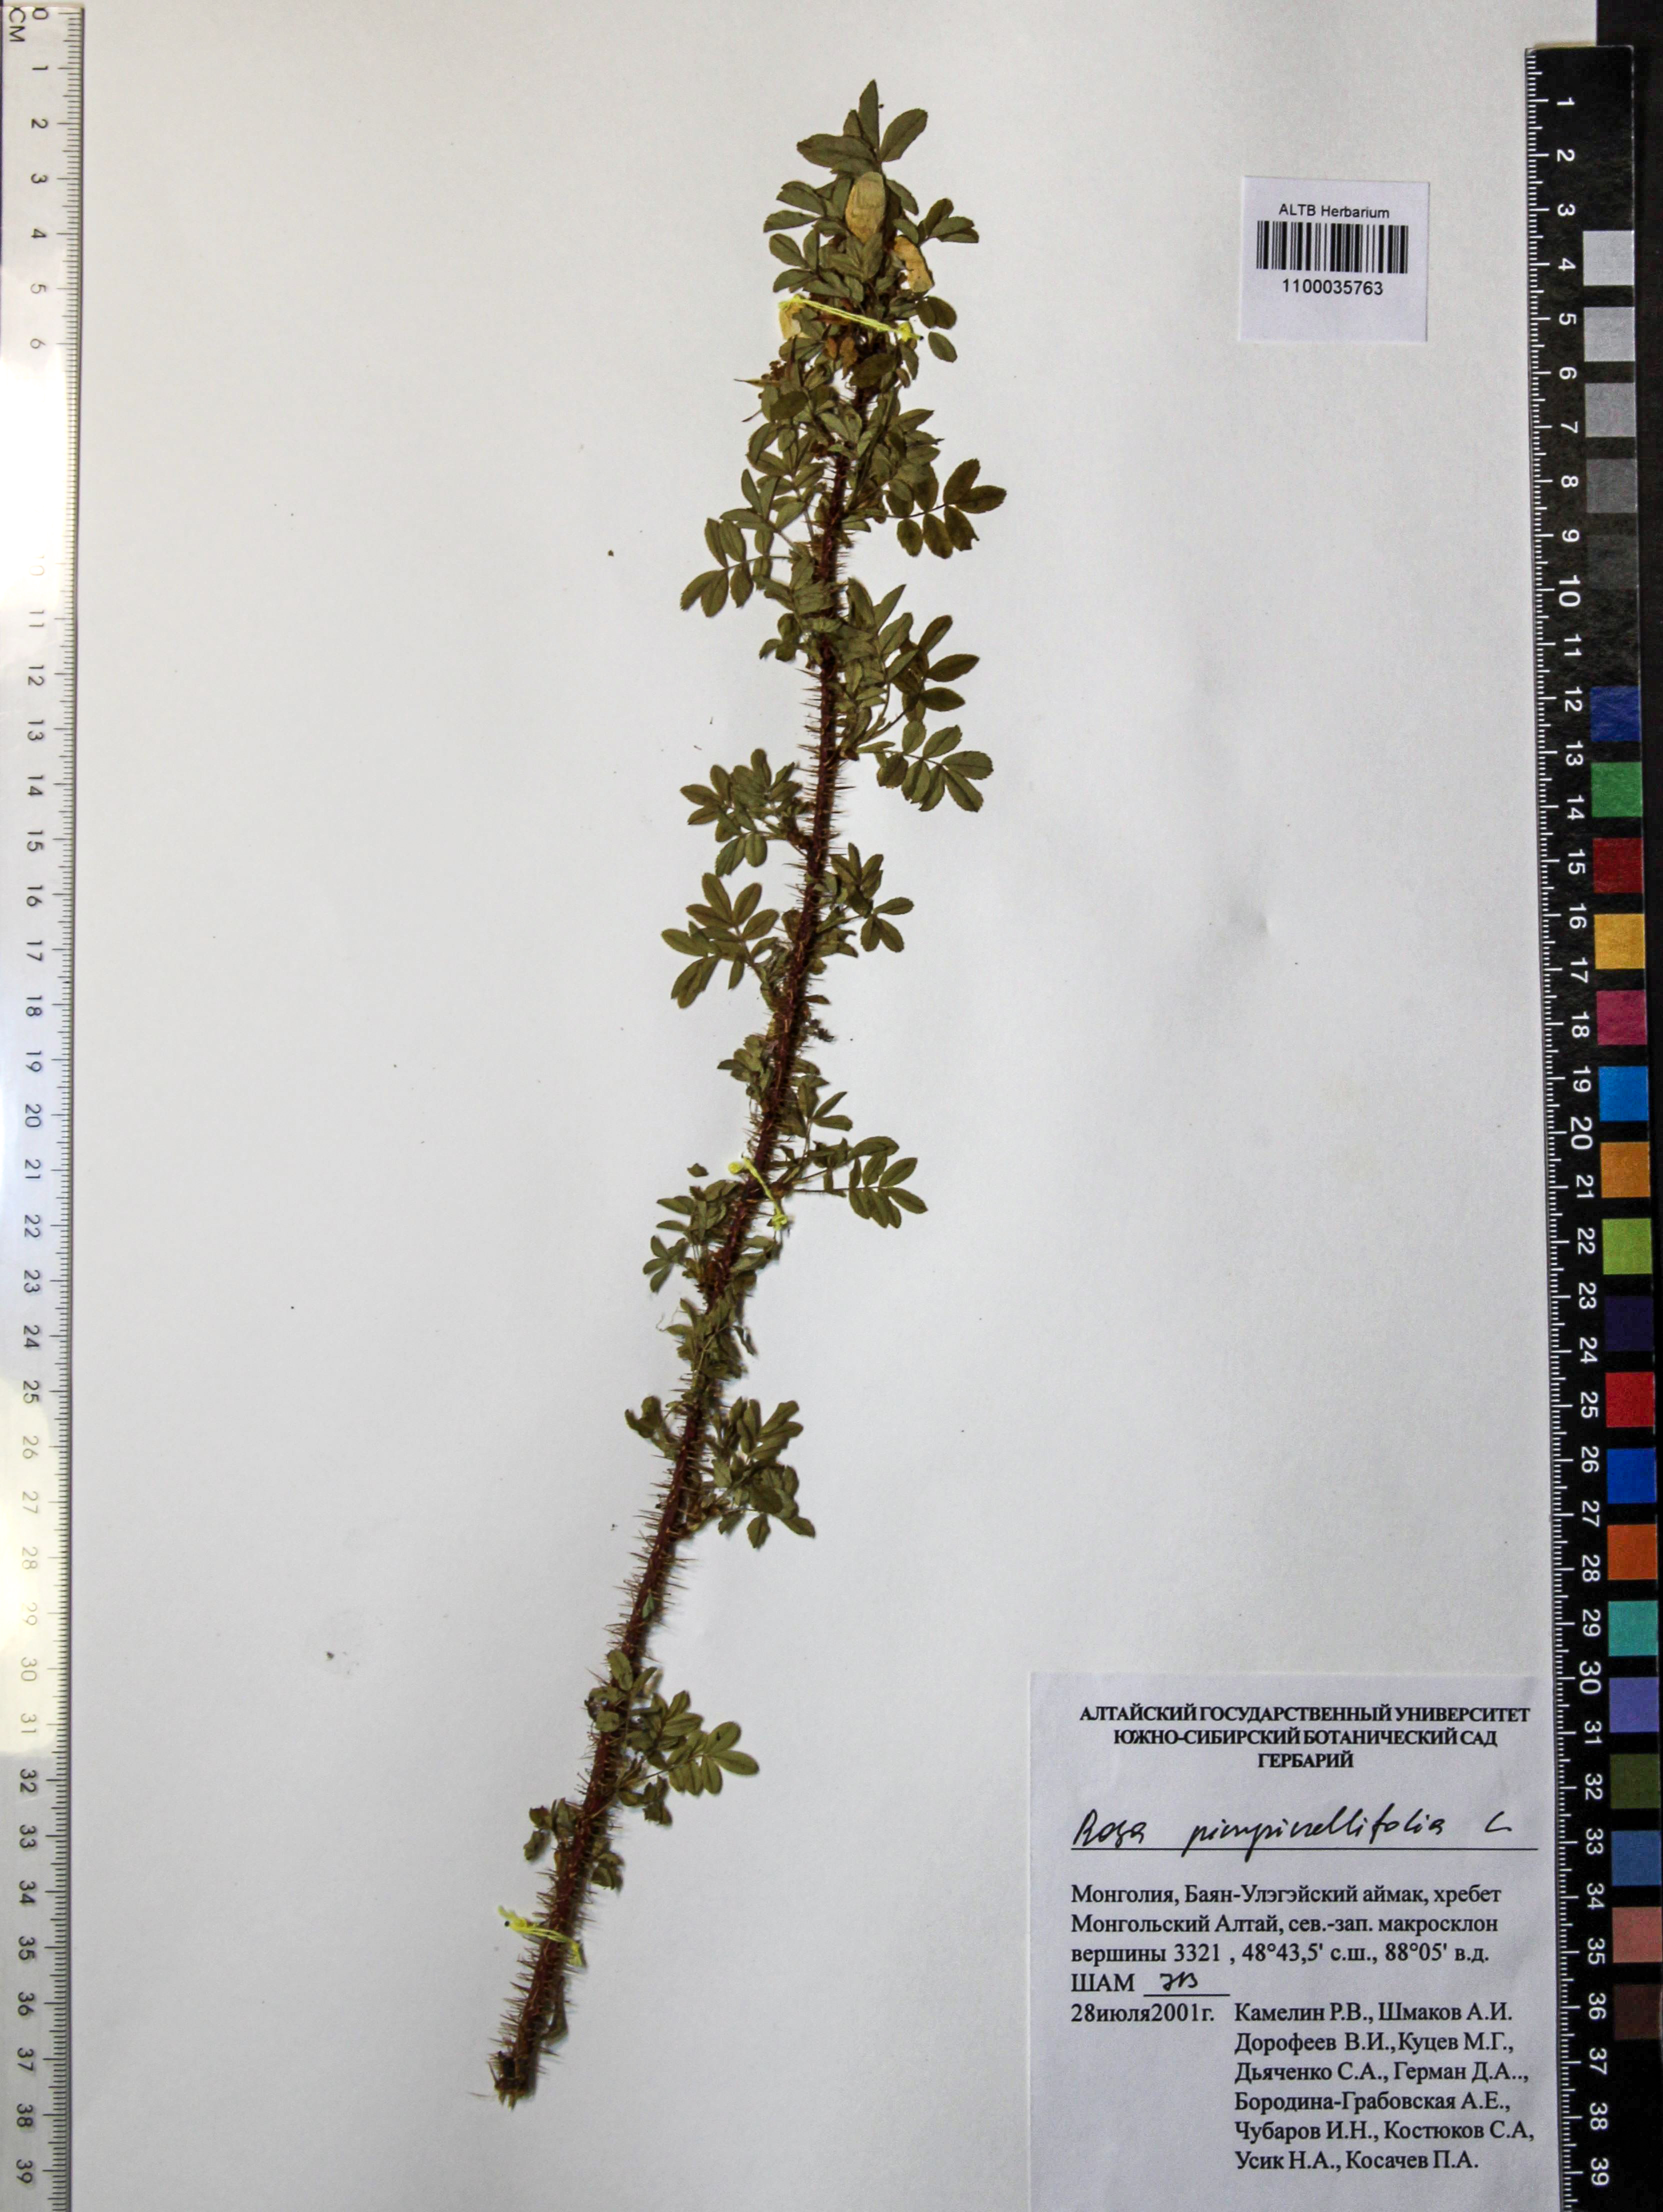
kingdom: Plantae
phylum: Tracheophyta
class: Magnoliopsida
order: Rosales
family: Rosaceae
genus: Rosa
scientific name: Rosa spinosissima
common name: Burnet rose
